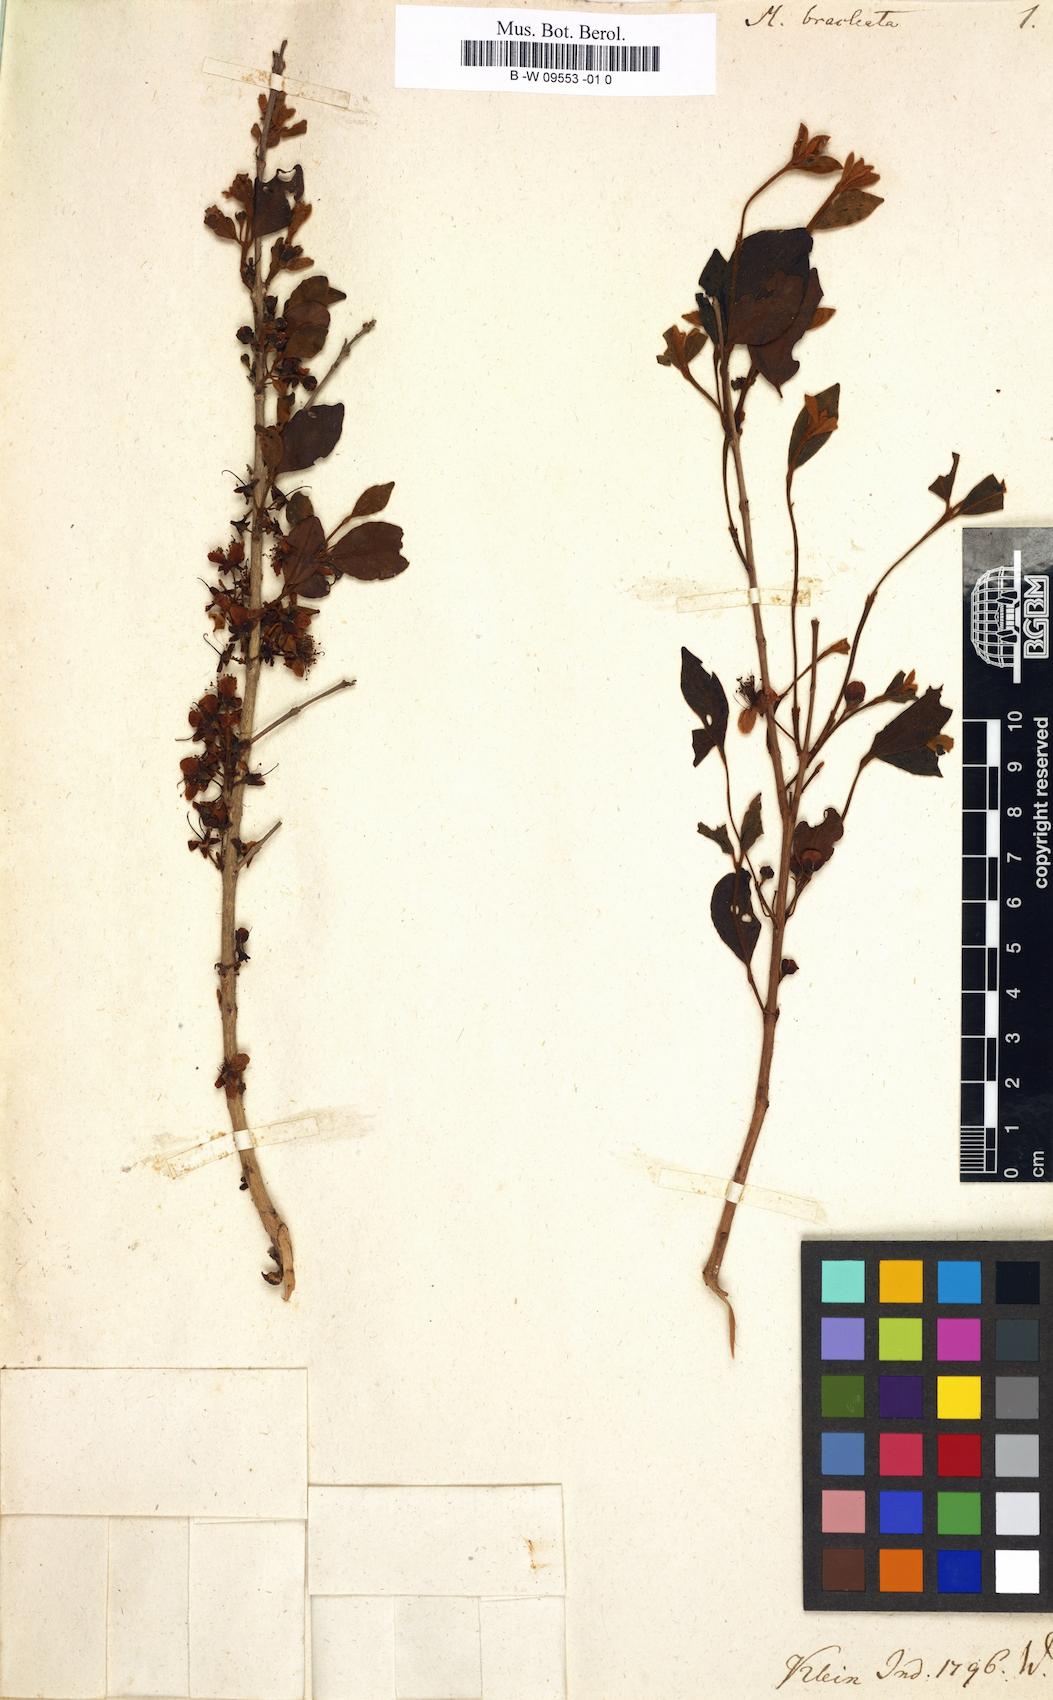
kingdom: Plantae
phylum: Tracheophyta
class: Magnoliopsida
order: Myrtales
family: Myrtaceae
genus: Myrtus
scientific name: Myrtus bracteata
